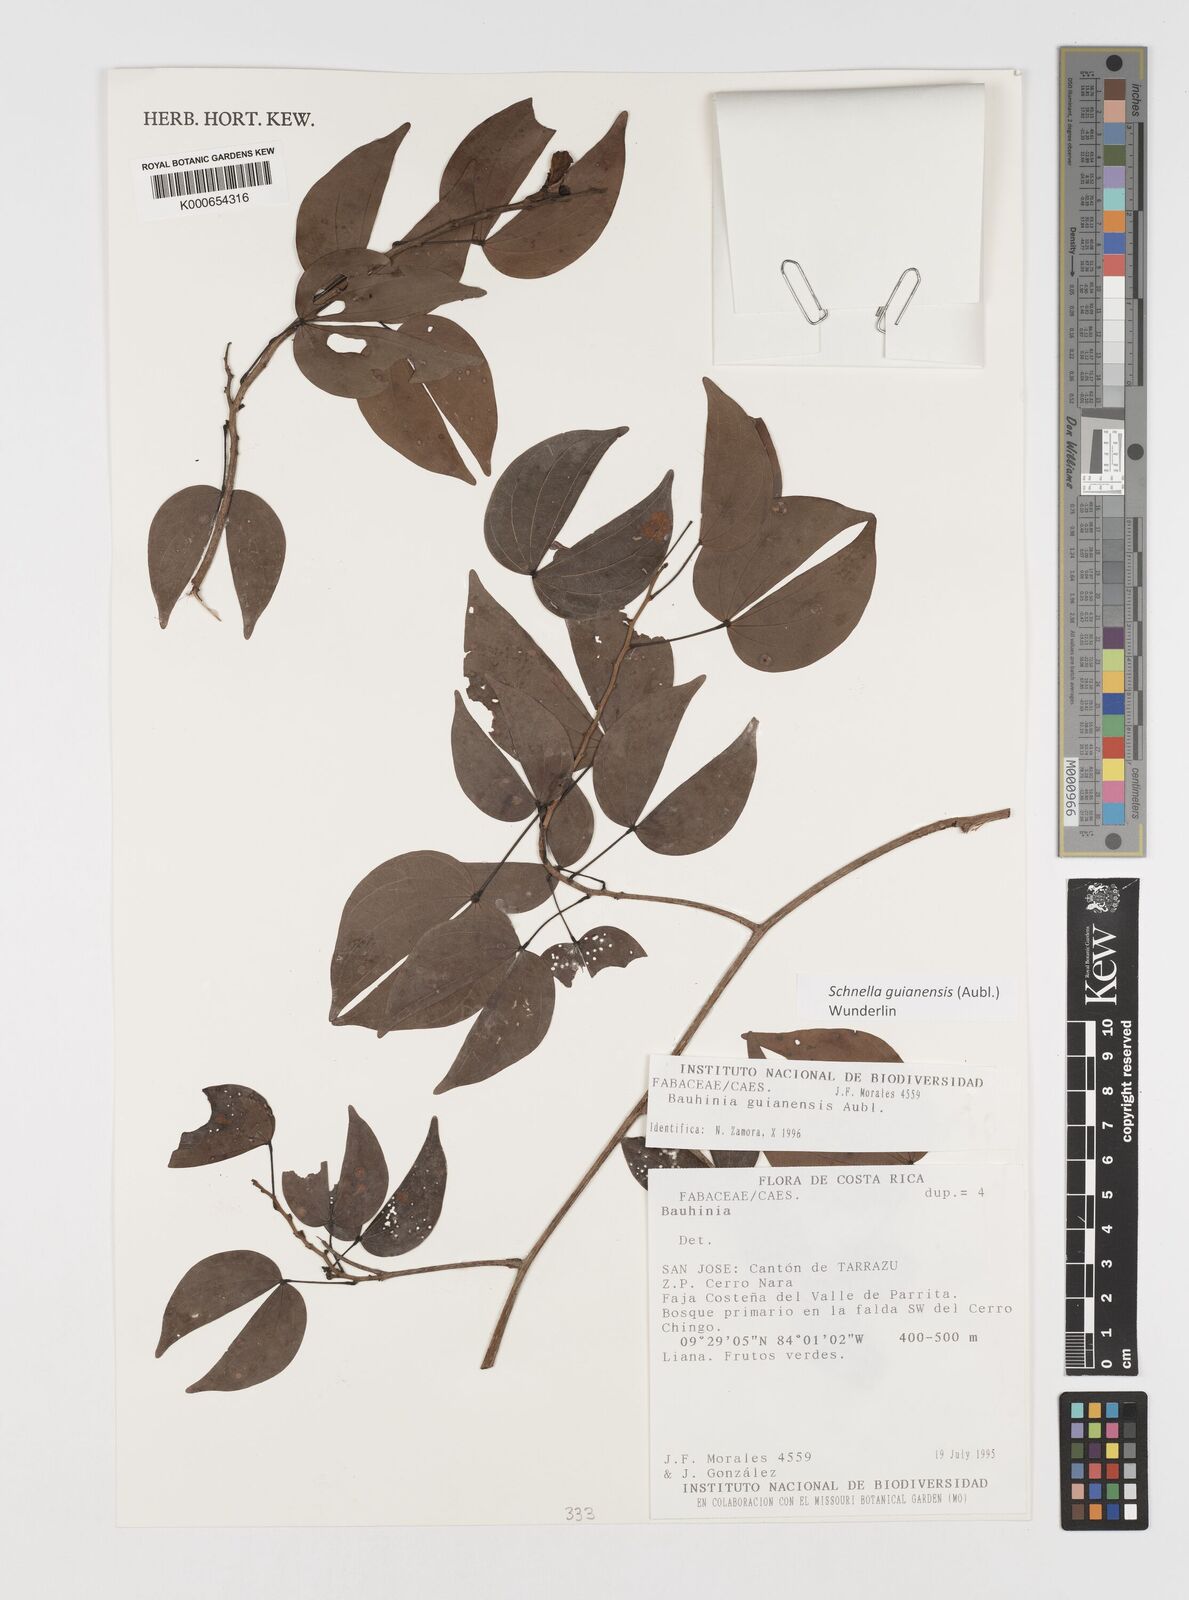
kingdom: Plantae
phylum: Tracheophyta
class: Magnoliopsida
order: Fabales
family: Fabaceae
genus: Schnella
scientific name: Schnella guianensis
